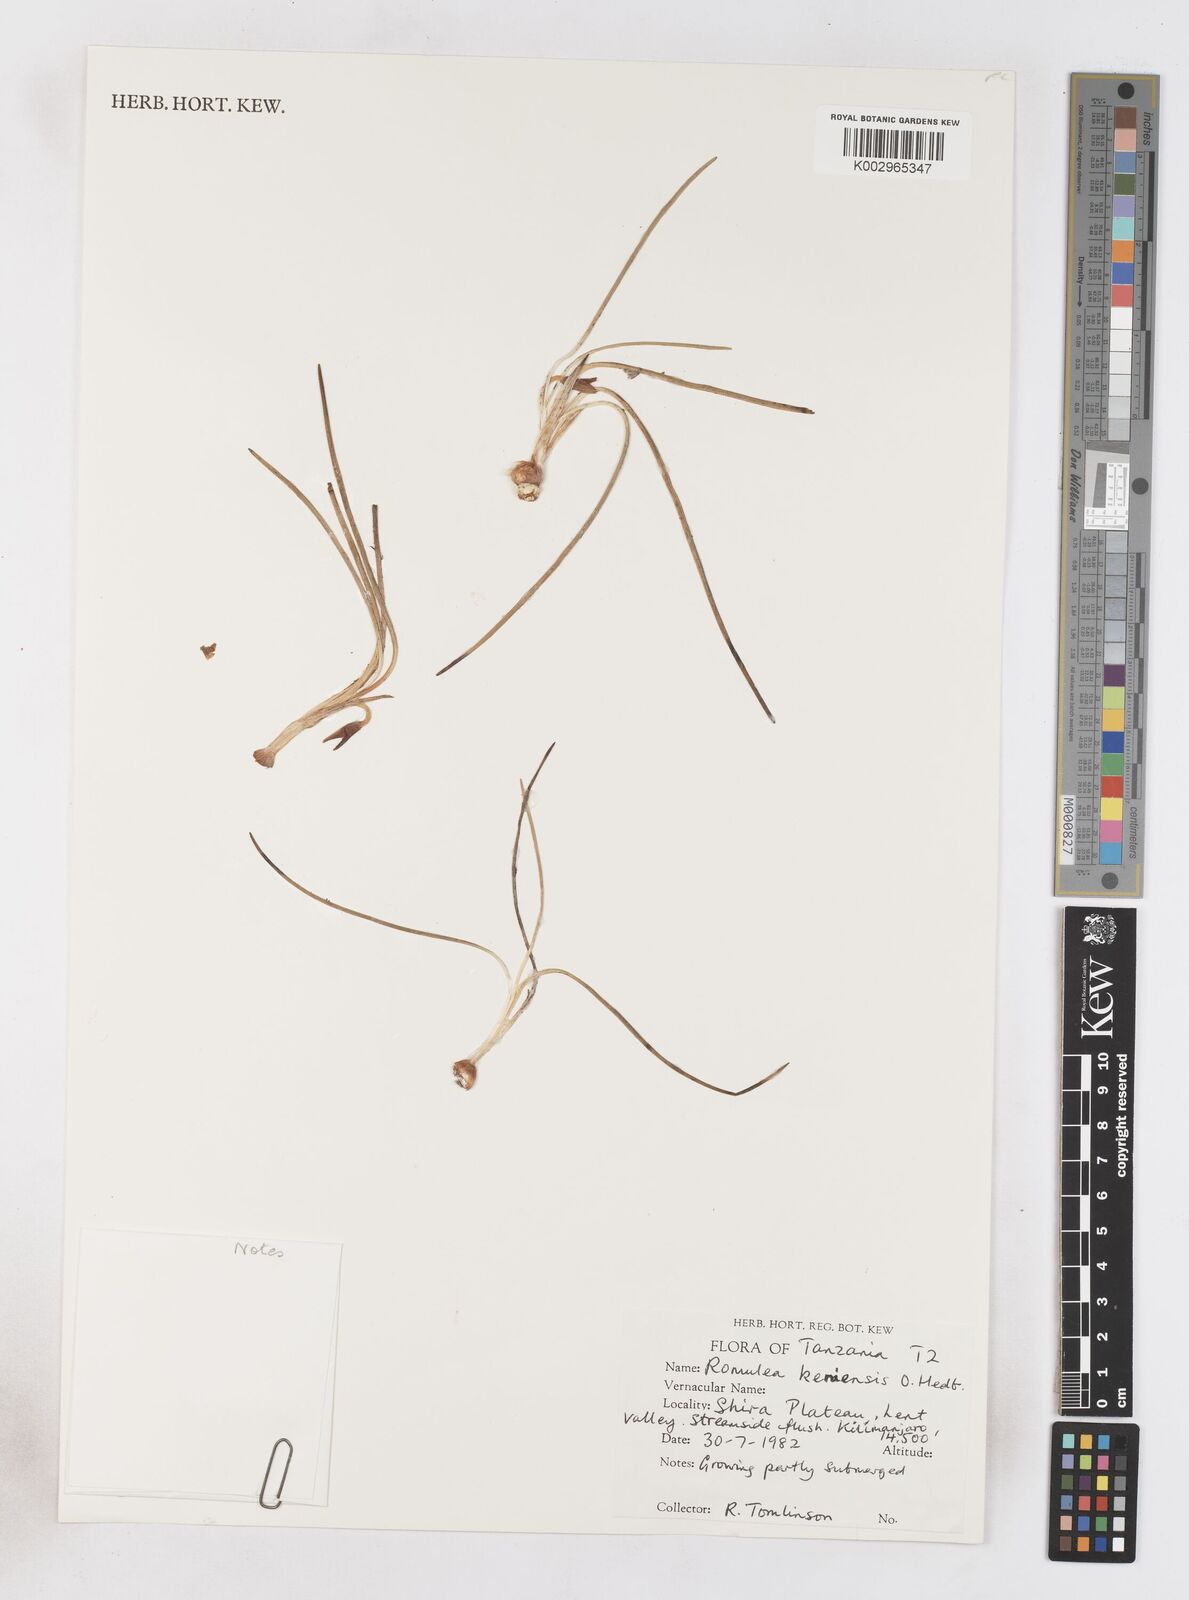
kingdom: Plantae
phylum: Tracheophyta
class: Liliopsida
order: Asparagales
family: Iridaceae
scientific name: Iridaceae
